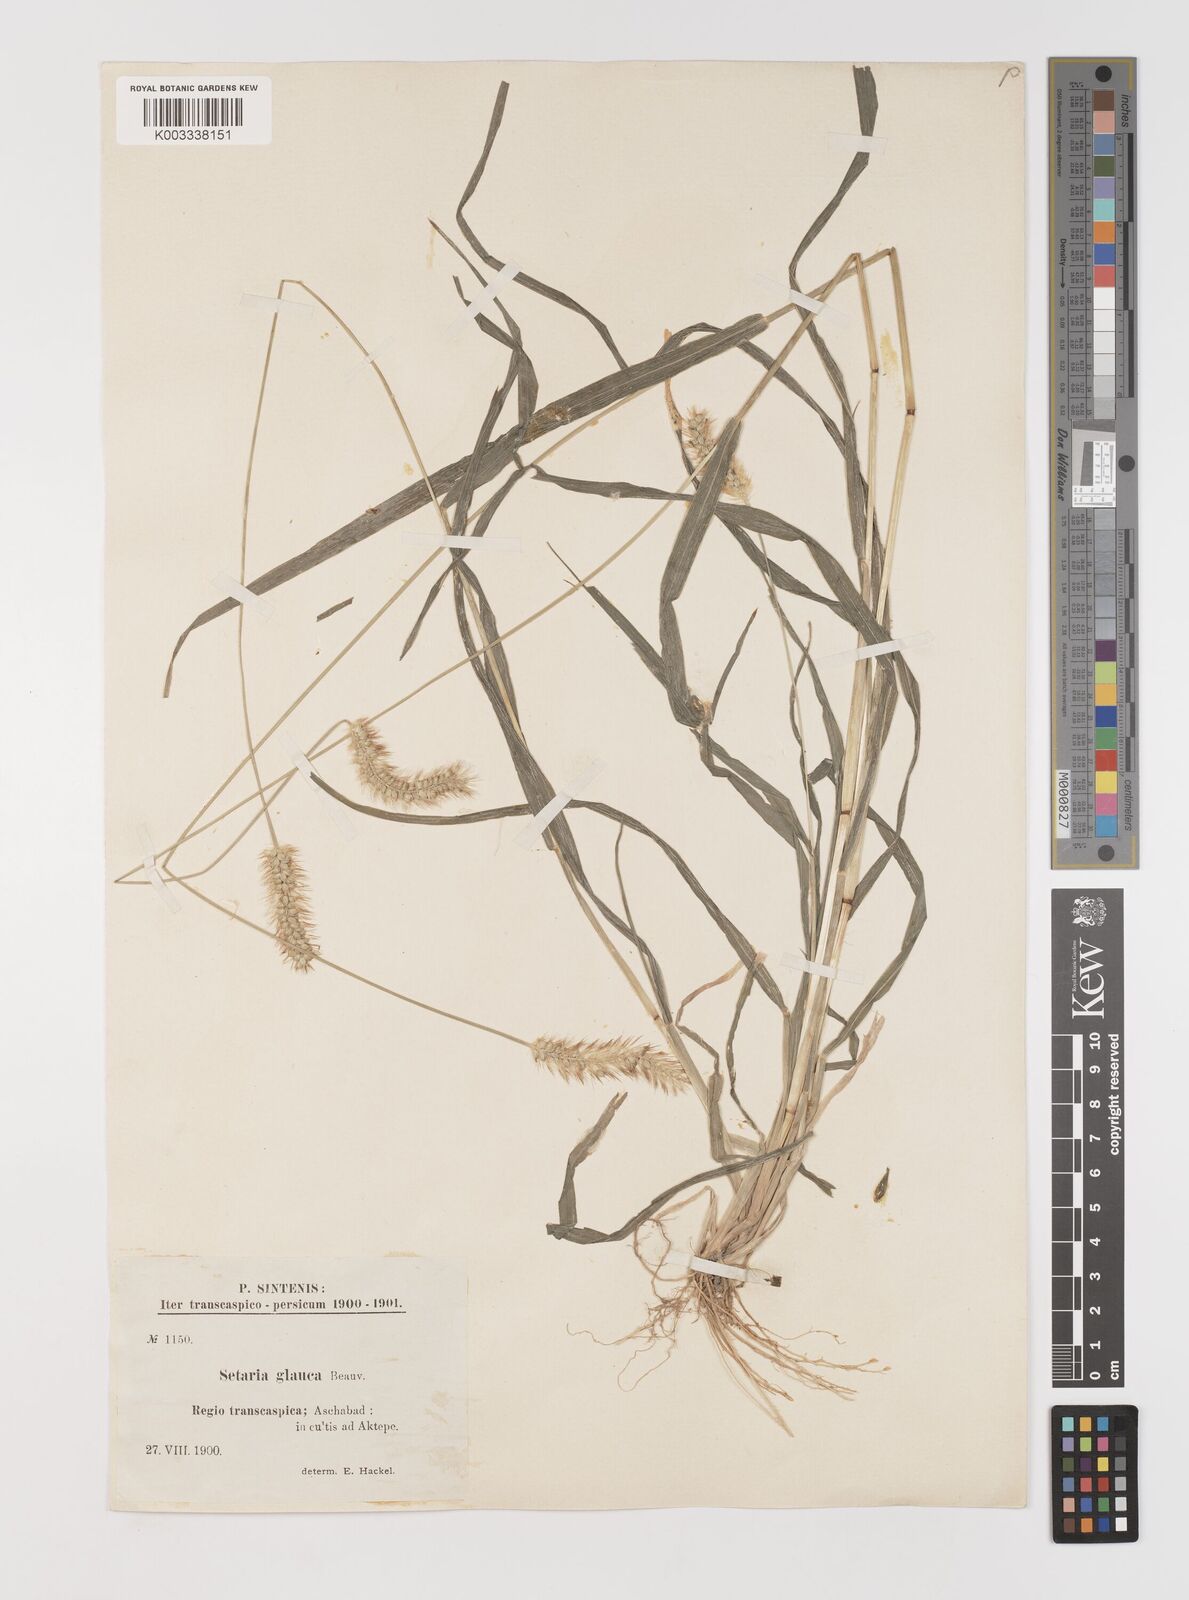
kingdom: Plantae
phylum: Tracheophyta
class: Liliopsida
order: Poales
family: Poaceae
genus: Setaria
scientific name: Setaria pumila
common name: Yellow bristle-grass
